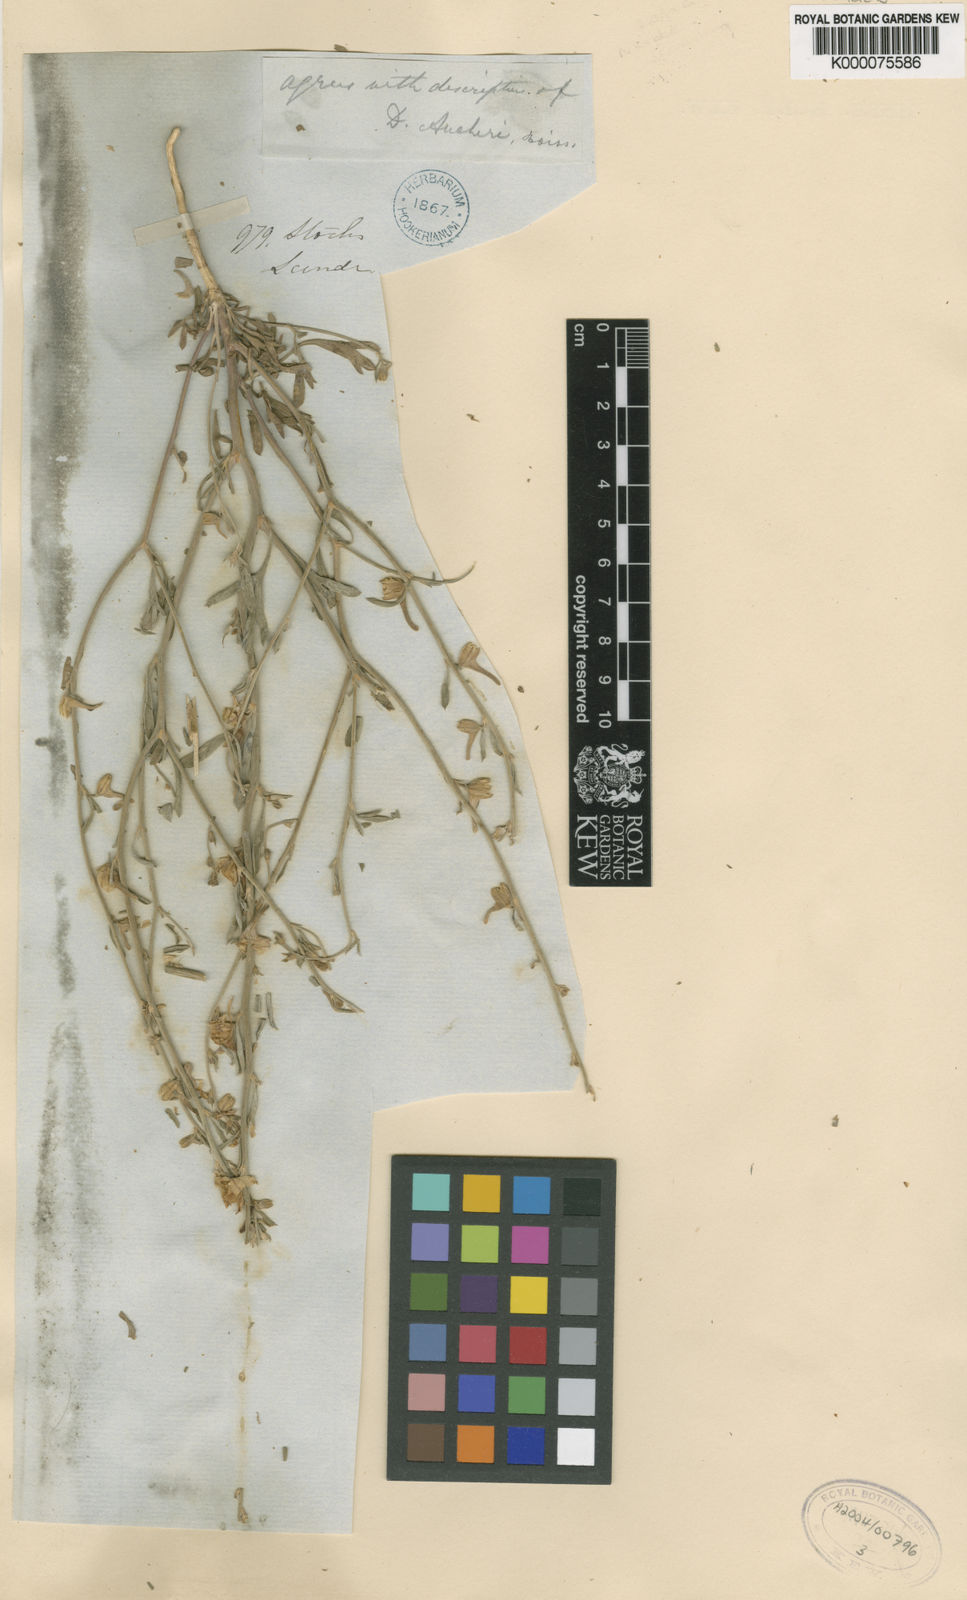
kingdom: Plantae
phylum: Tracheophyta
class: Magnoliopsida
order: Ranunculales
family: Ranunculaceae
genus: Delphinium
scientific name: Delphinium stocksianum
